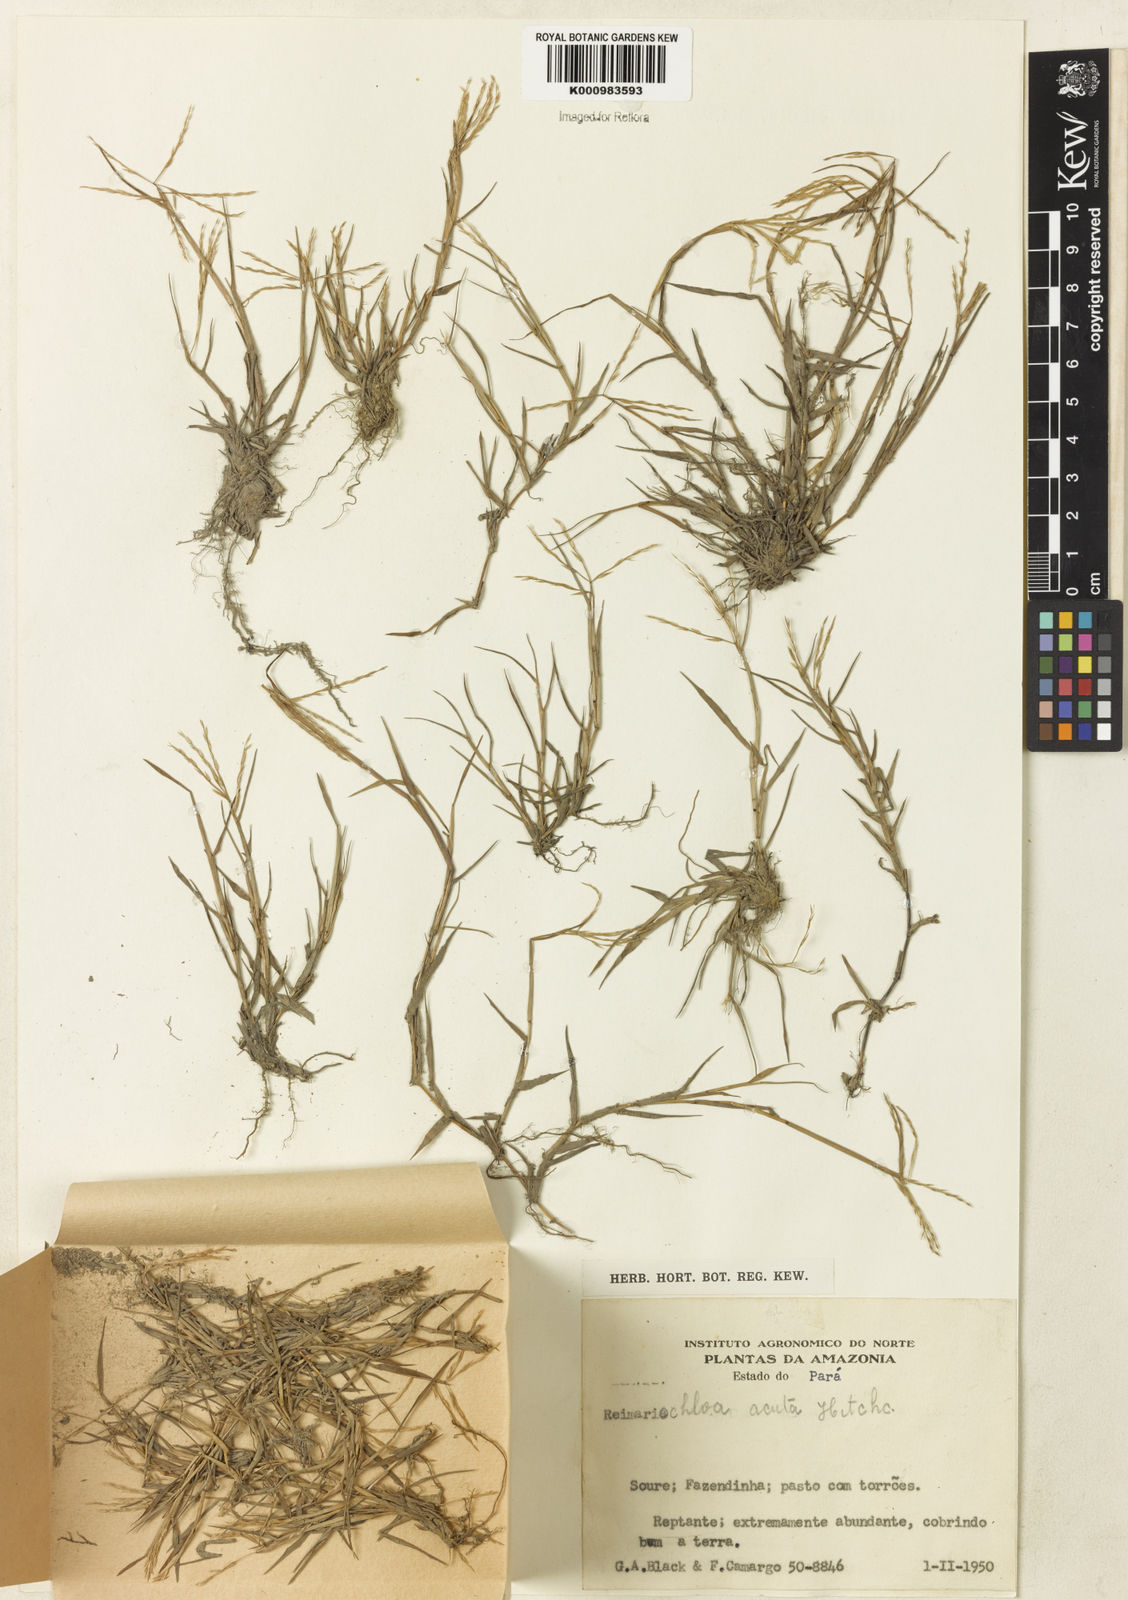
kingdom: Plantae
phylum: Tracheophyta
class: Liliopsida
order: Poales
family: Poaceae
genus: Paspalum
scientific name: Paspalum
